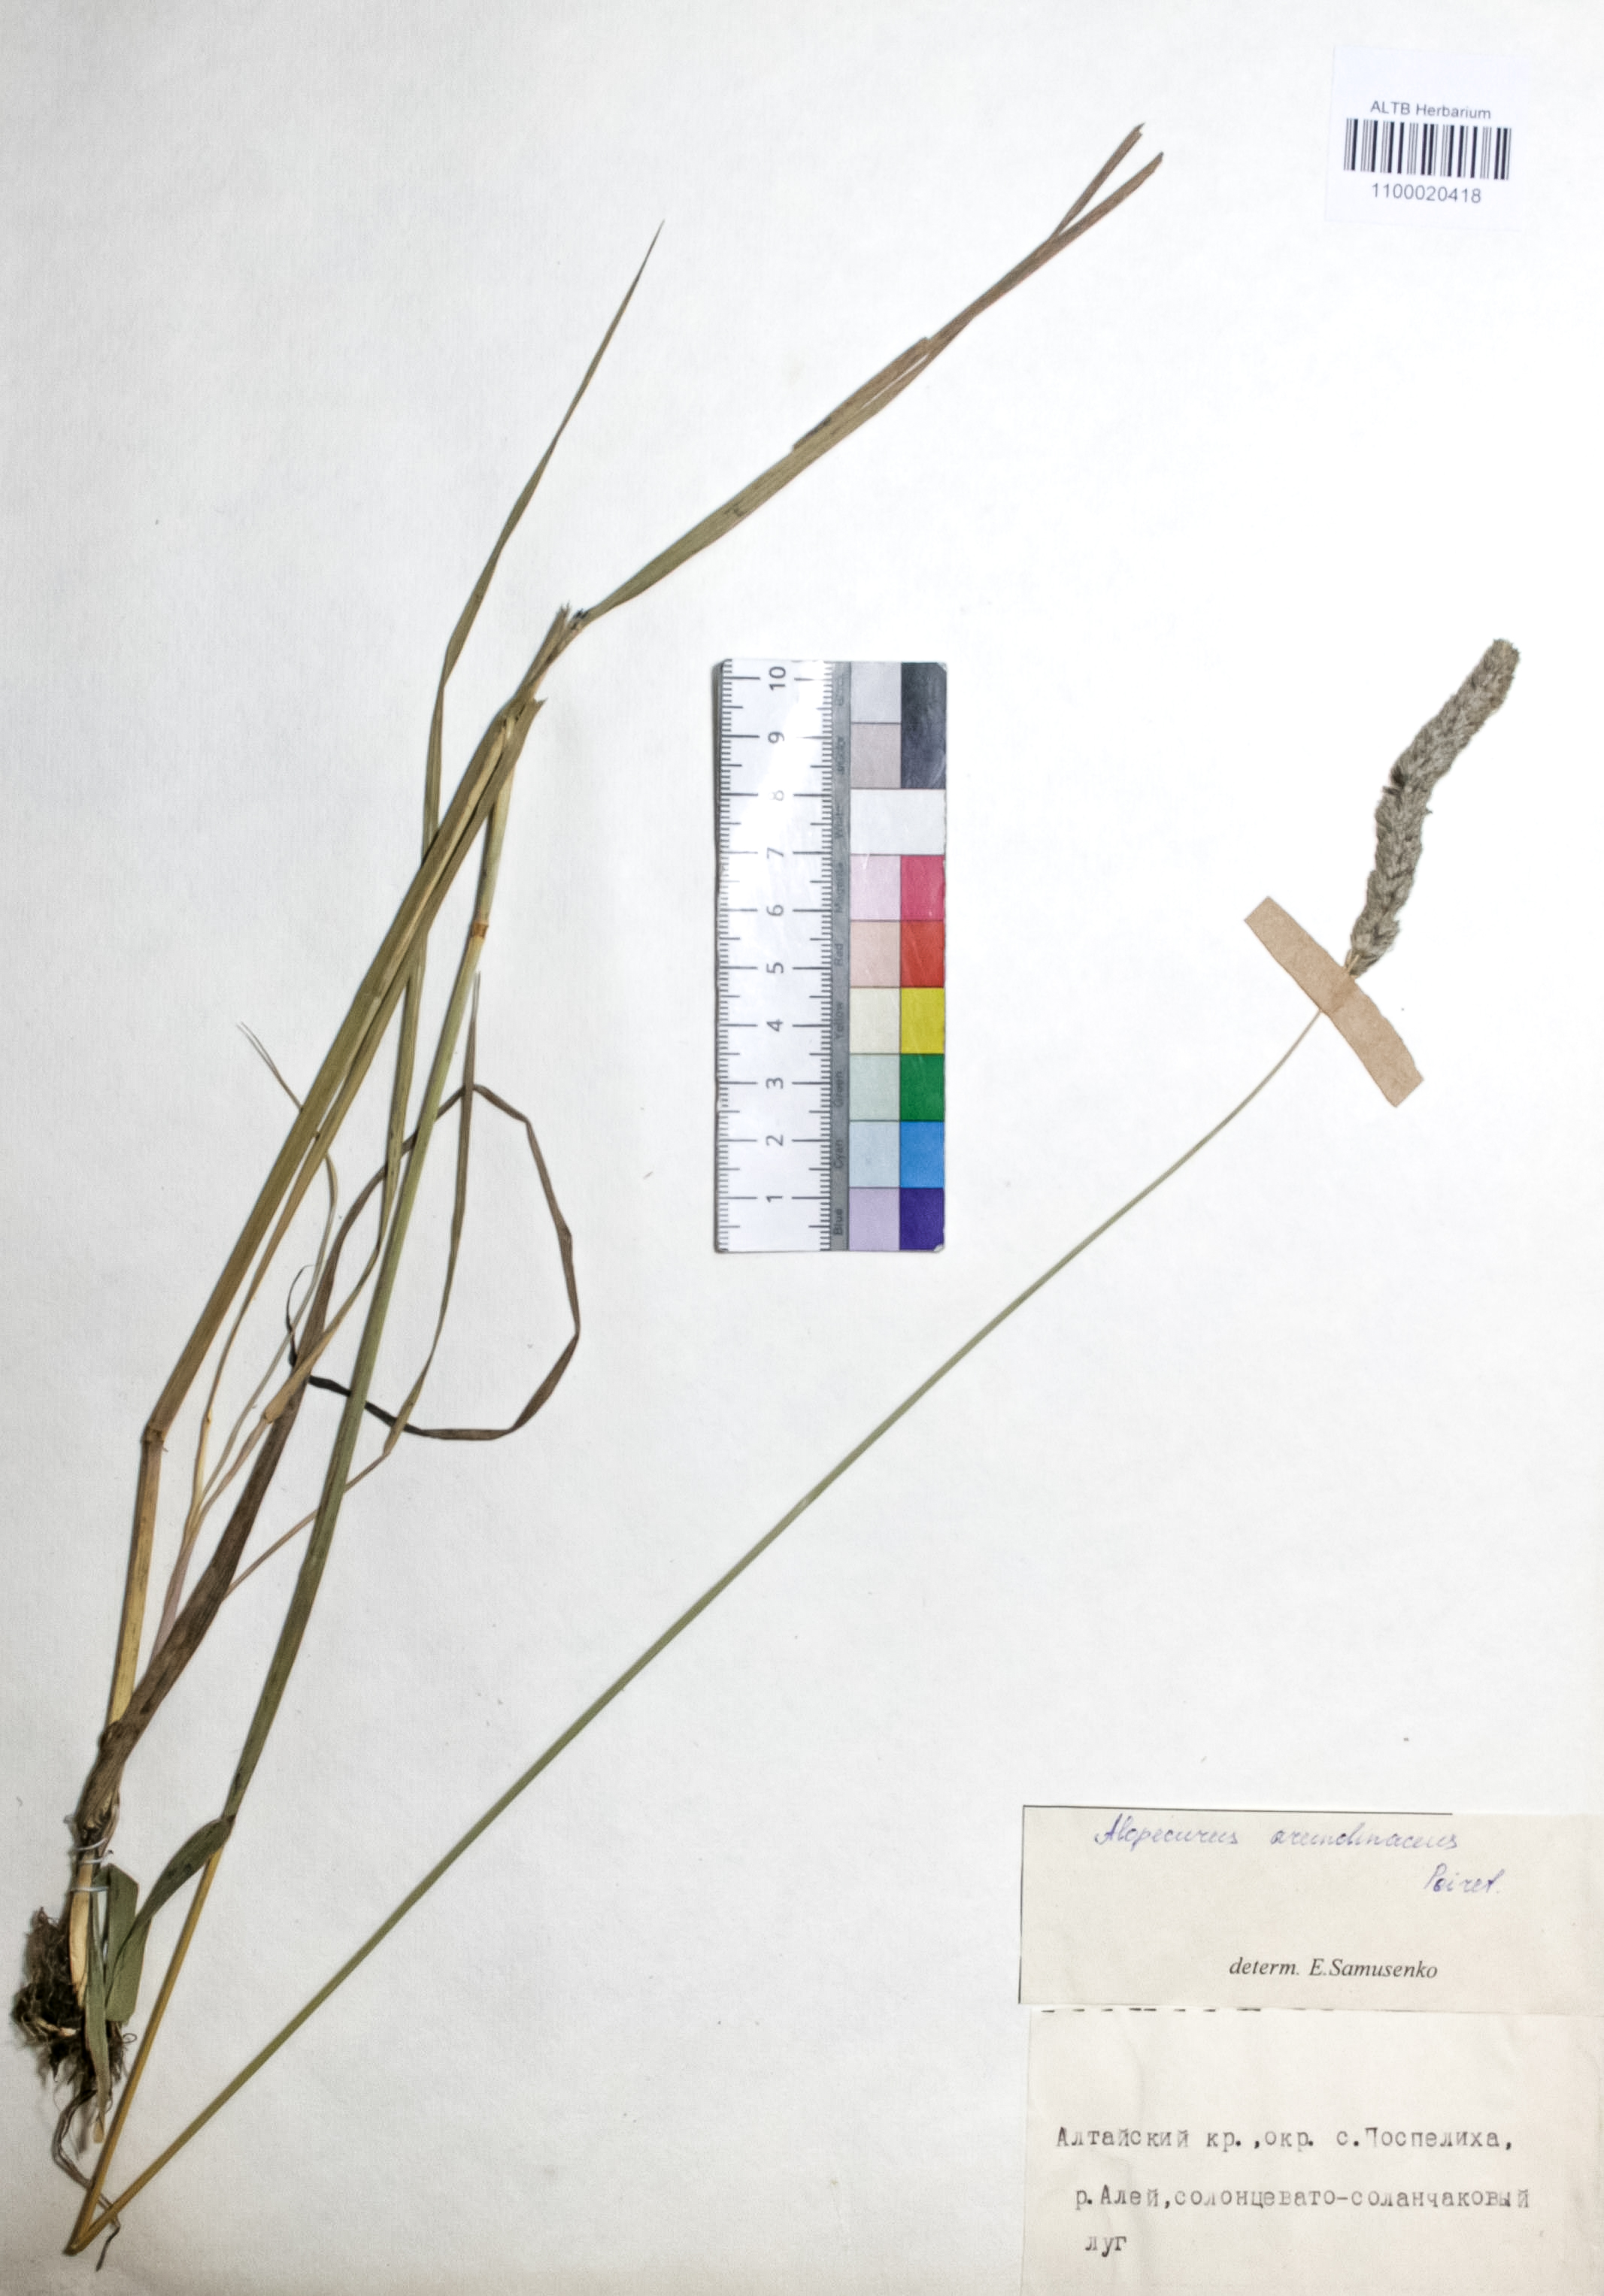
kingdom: Plantae
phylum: Tracheophyta
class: Liliopsida
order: Poales
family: Poaceae
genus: Alopecurus
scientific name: Alopecurus arundinaceus
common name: Creeping meadow foxtail
